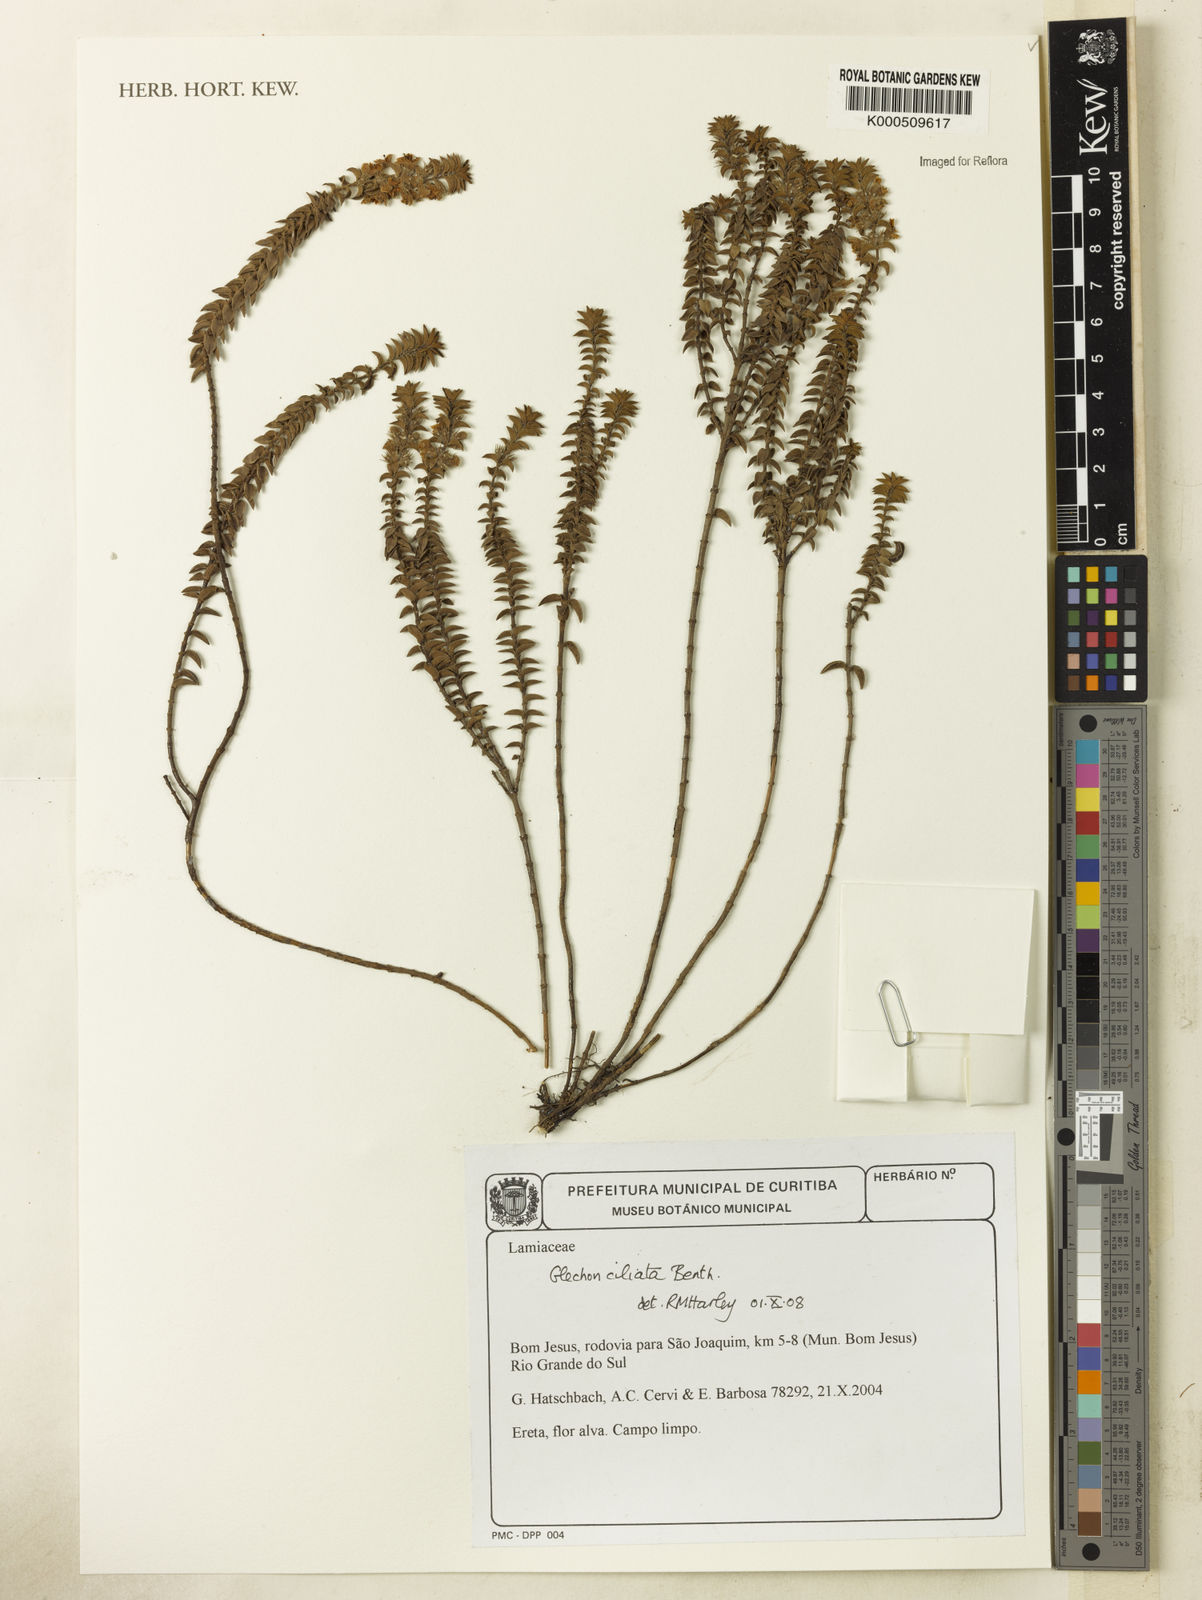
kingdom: Plantae
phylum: Tracheophyta
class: Magnoliopsida
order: Lamiales
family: Lamiaceae
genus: Glechon
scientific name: Glechon ciliata
